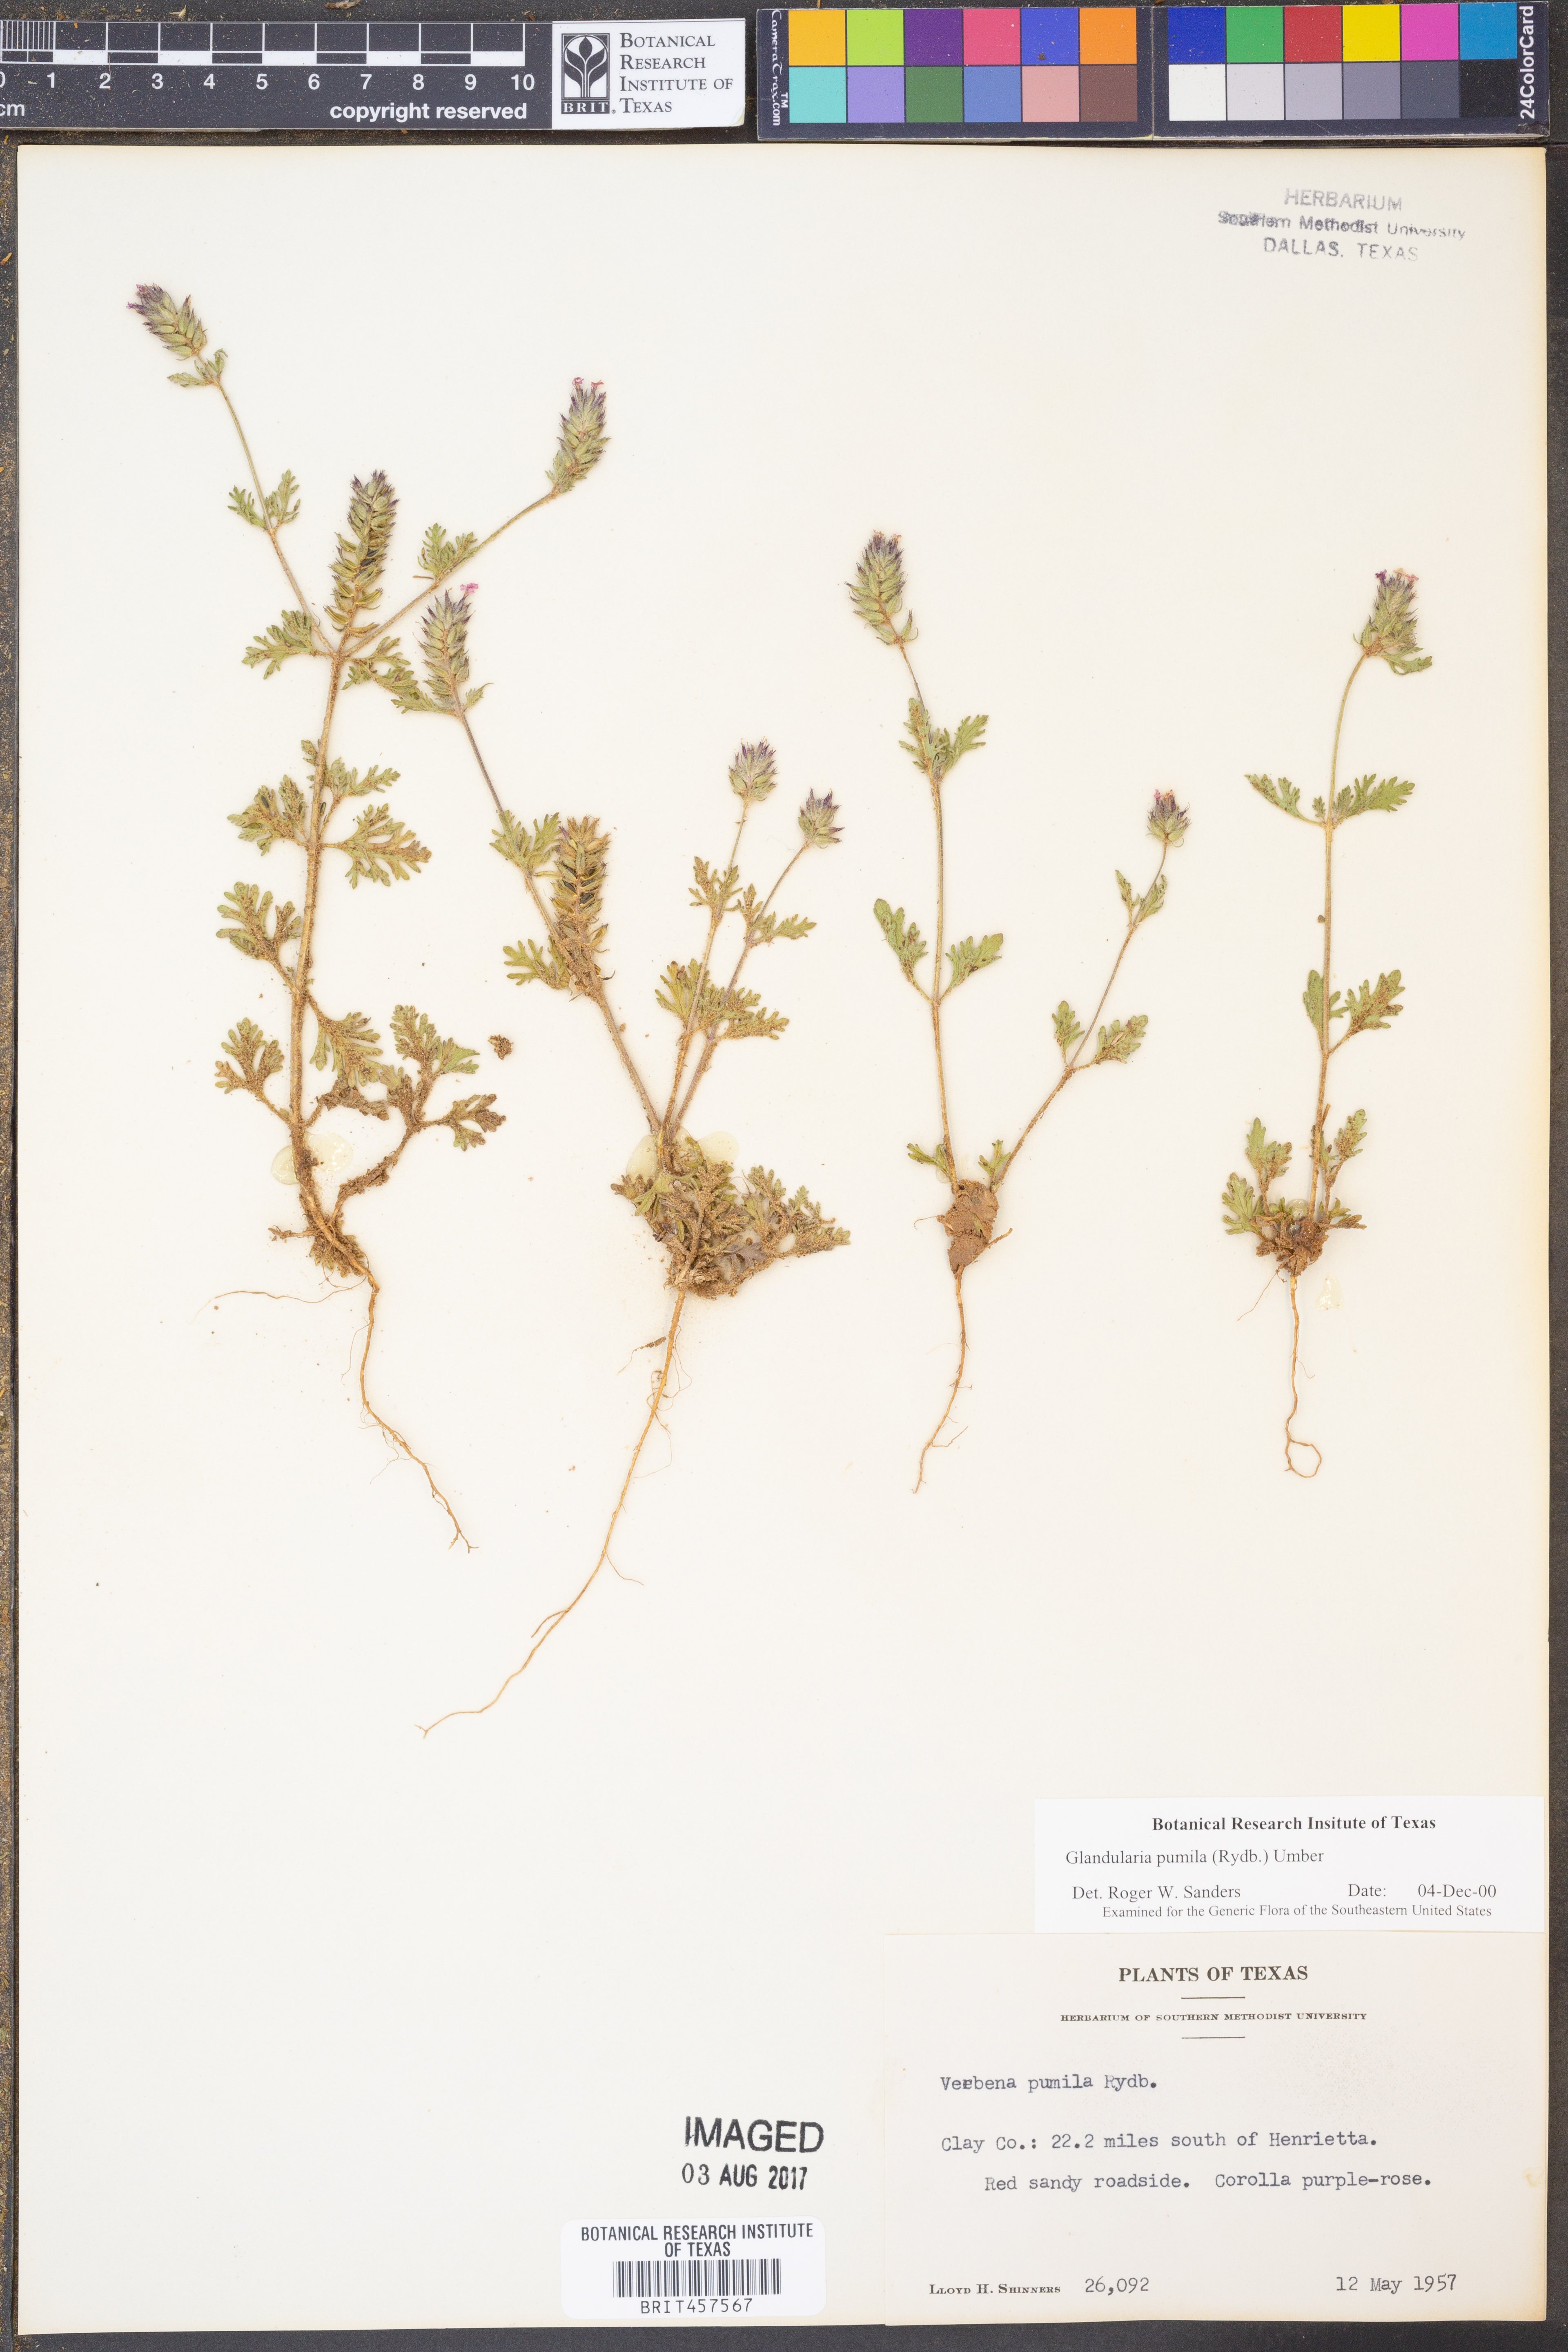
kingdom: Plantae
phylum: Tracheophyta
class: Magnoliopsida
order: Lamiales
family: Verbenaceae
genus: Verbena
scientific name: Verbena pumila
